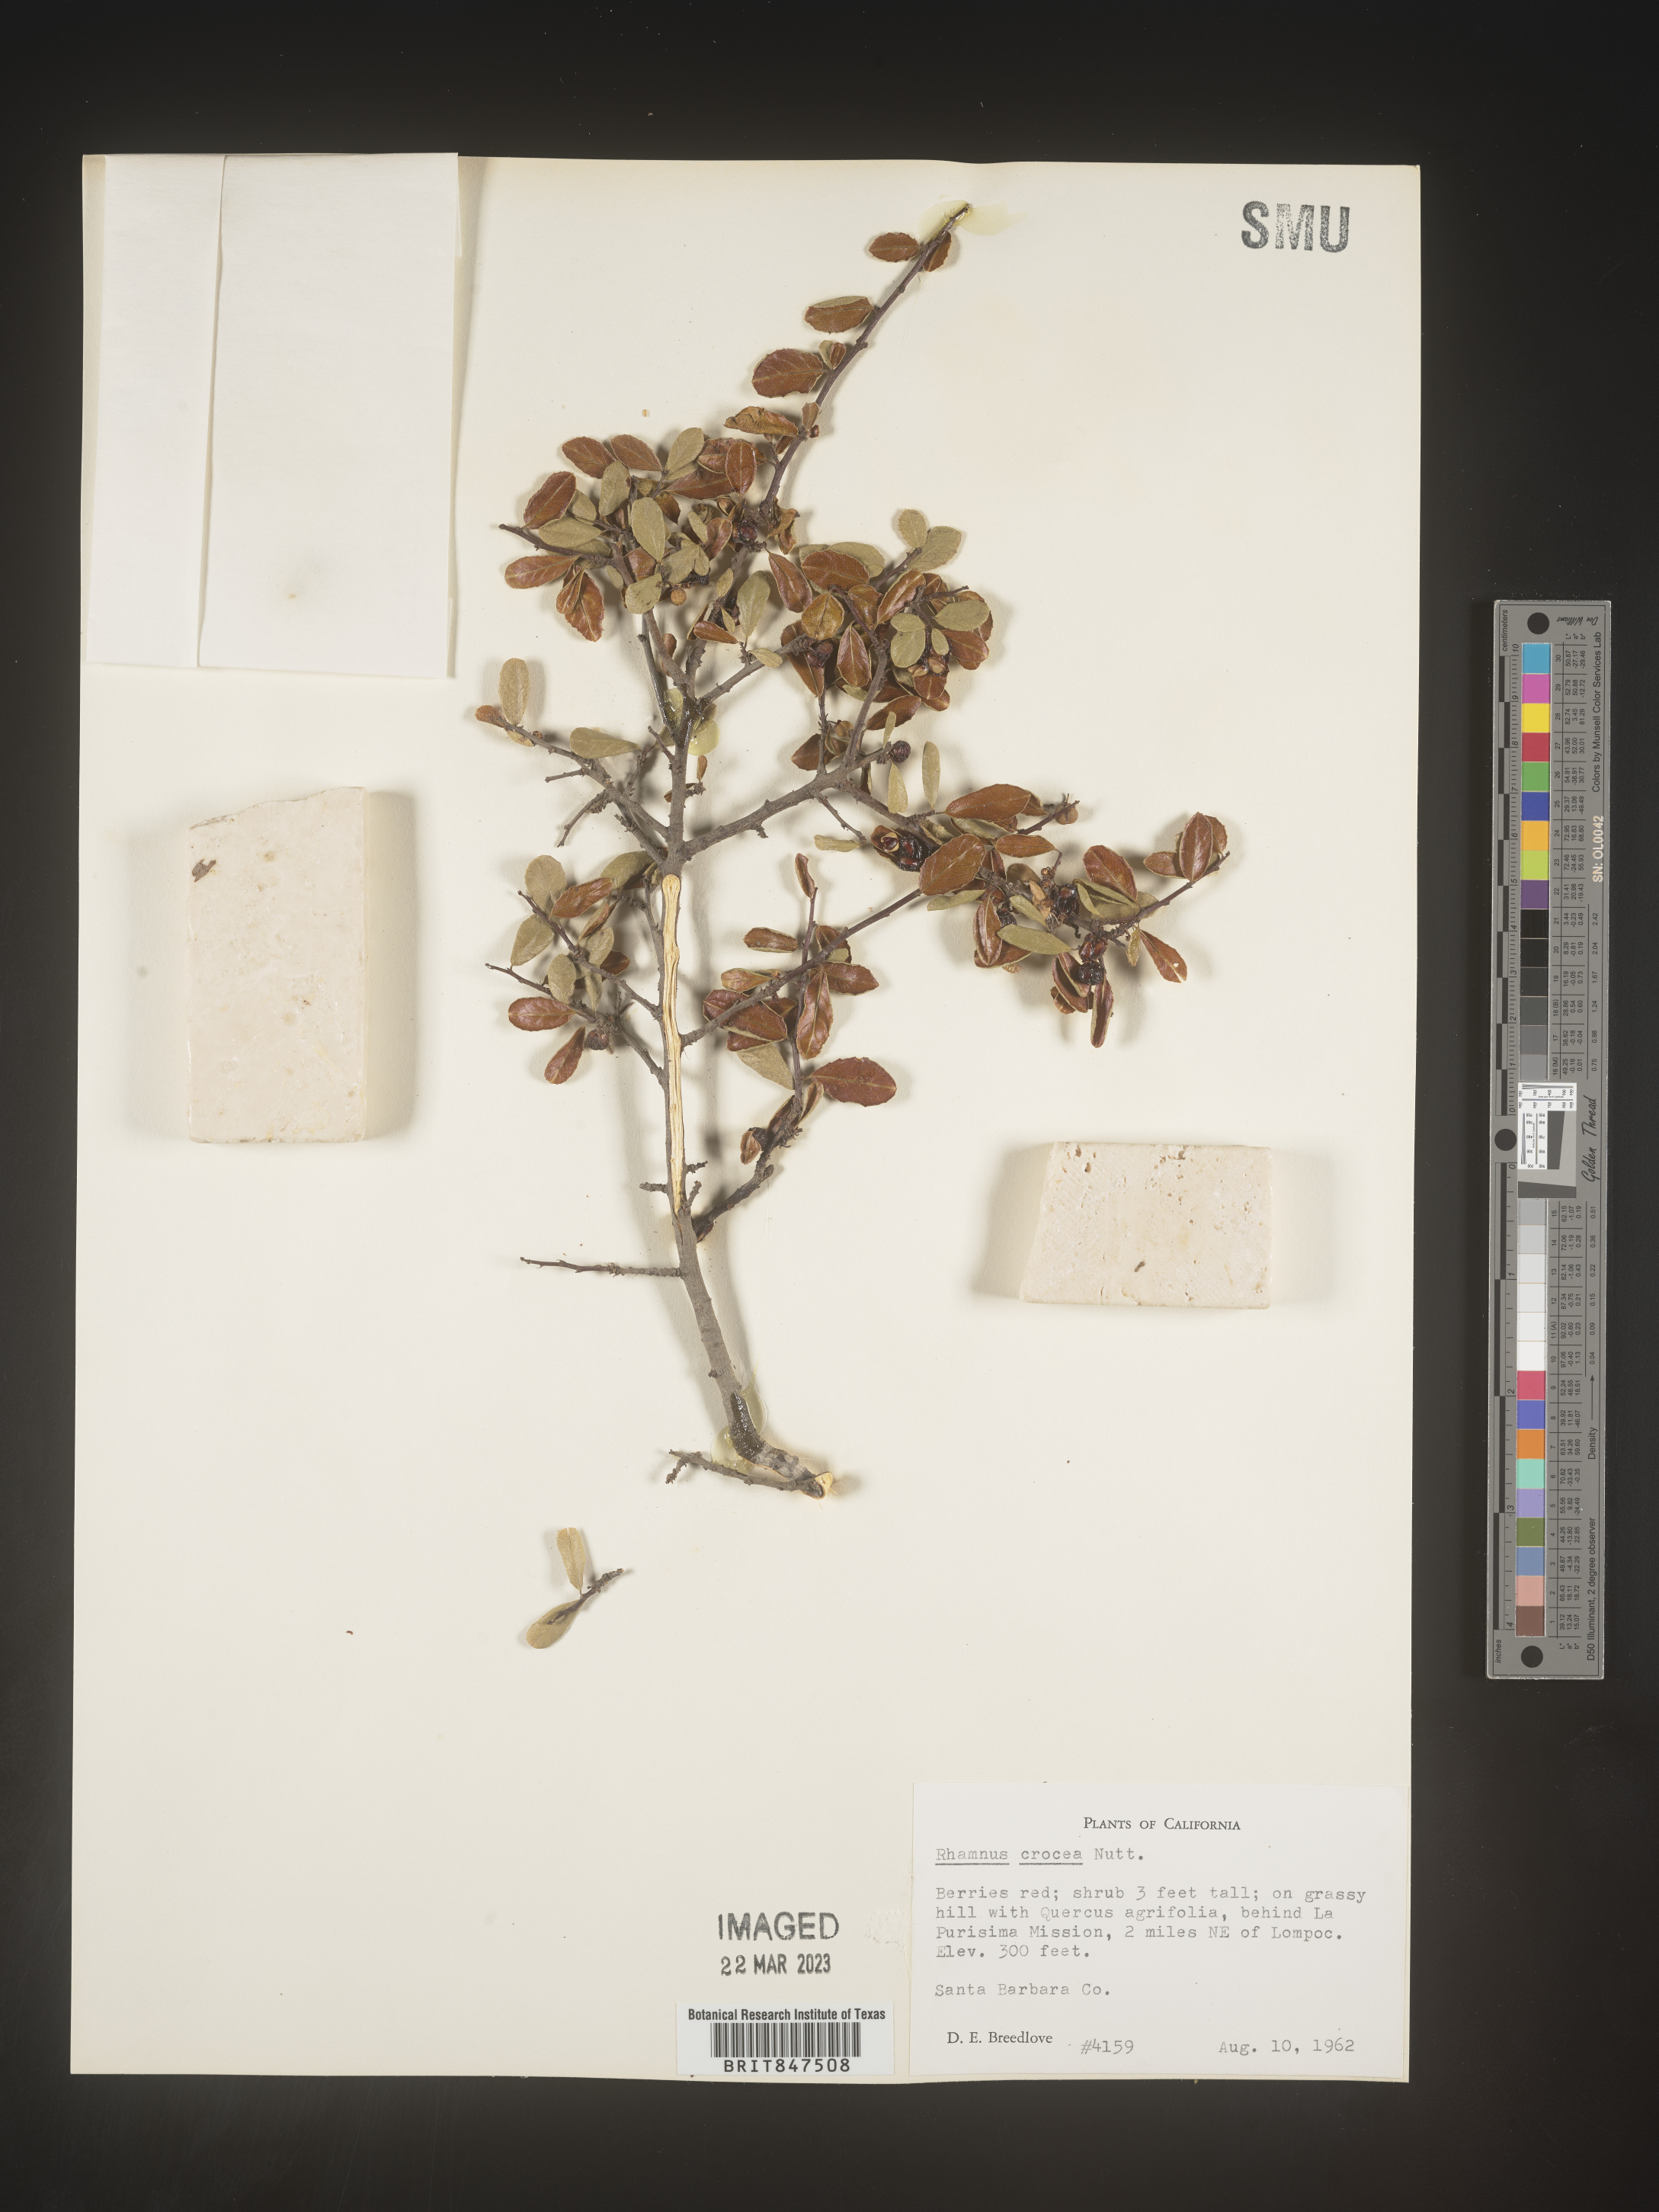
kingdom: Plantae
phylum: Tracheophyta
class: Magnoliopsida
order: Rosales
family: Rhamnaceae
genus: Endotropis
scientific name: Endotropis crocea
